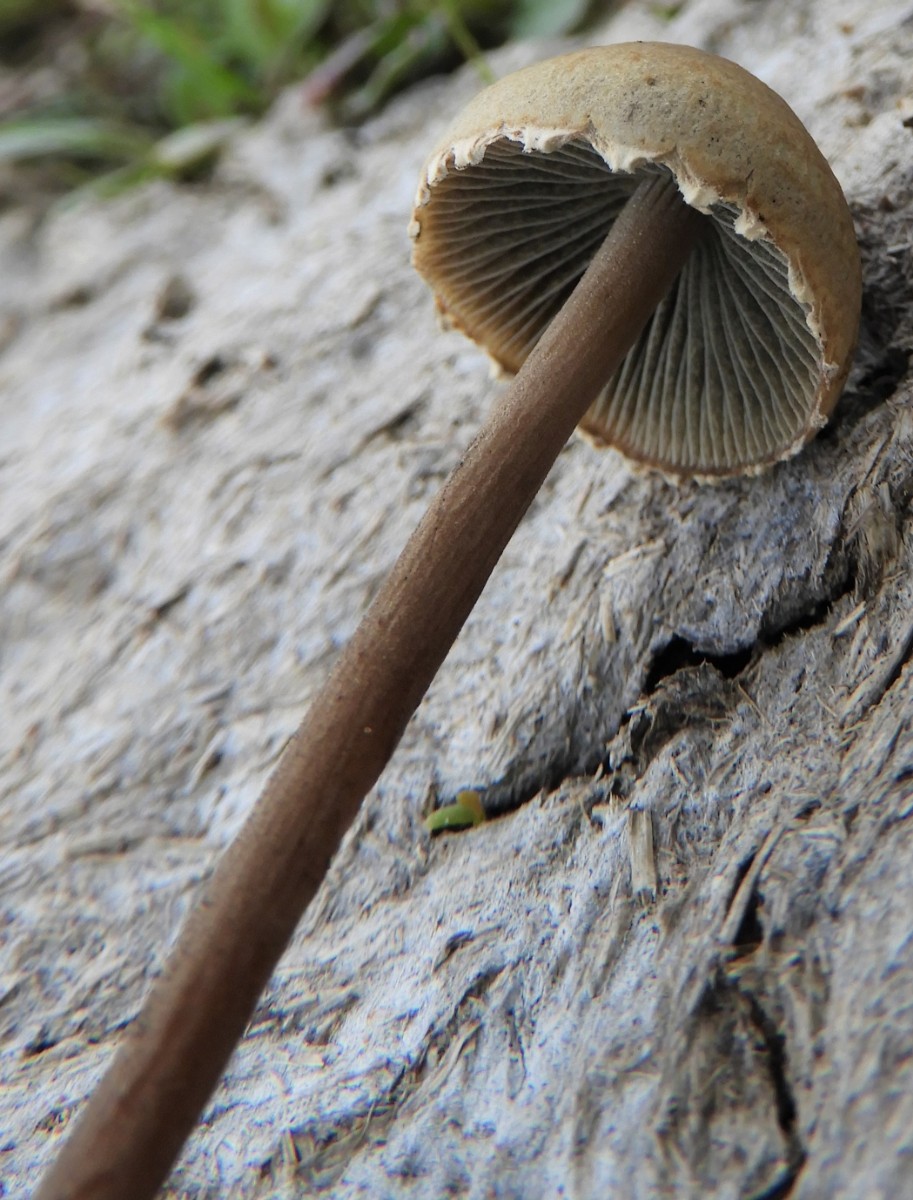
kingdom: Fungi
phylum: Basidiomycota
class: Agaricomycetes
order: Agaricales
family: Bolbitiaceae
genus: Panaeolus
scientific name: Panaeolus papilionaceus
